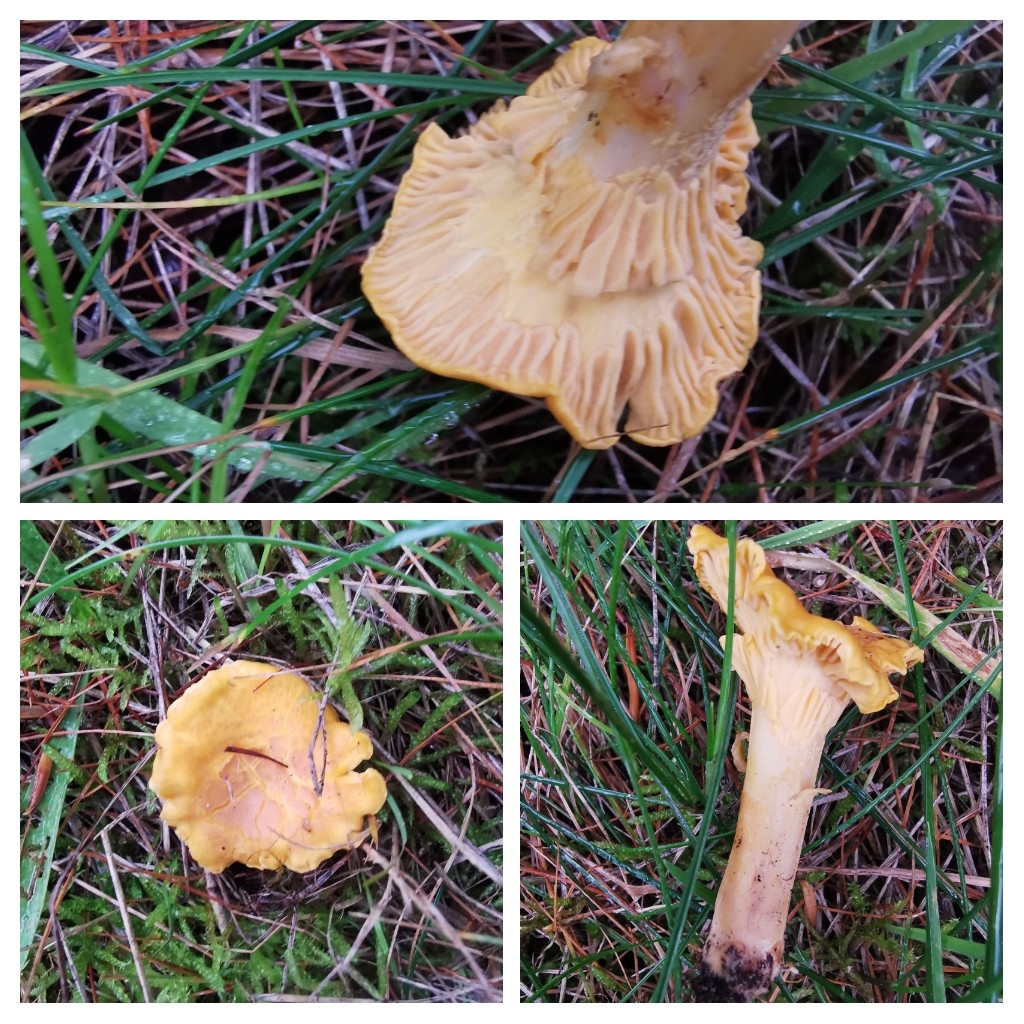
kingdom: Fungi
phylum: Basidiomycota
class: Agaricomycetes
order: Cantharellales
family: Hydnaceae
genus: Cantharellus
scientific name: Cantharellus amethysteus
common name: ametyst-kantarel
